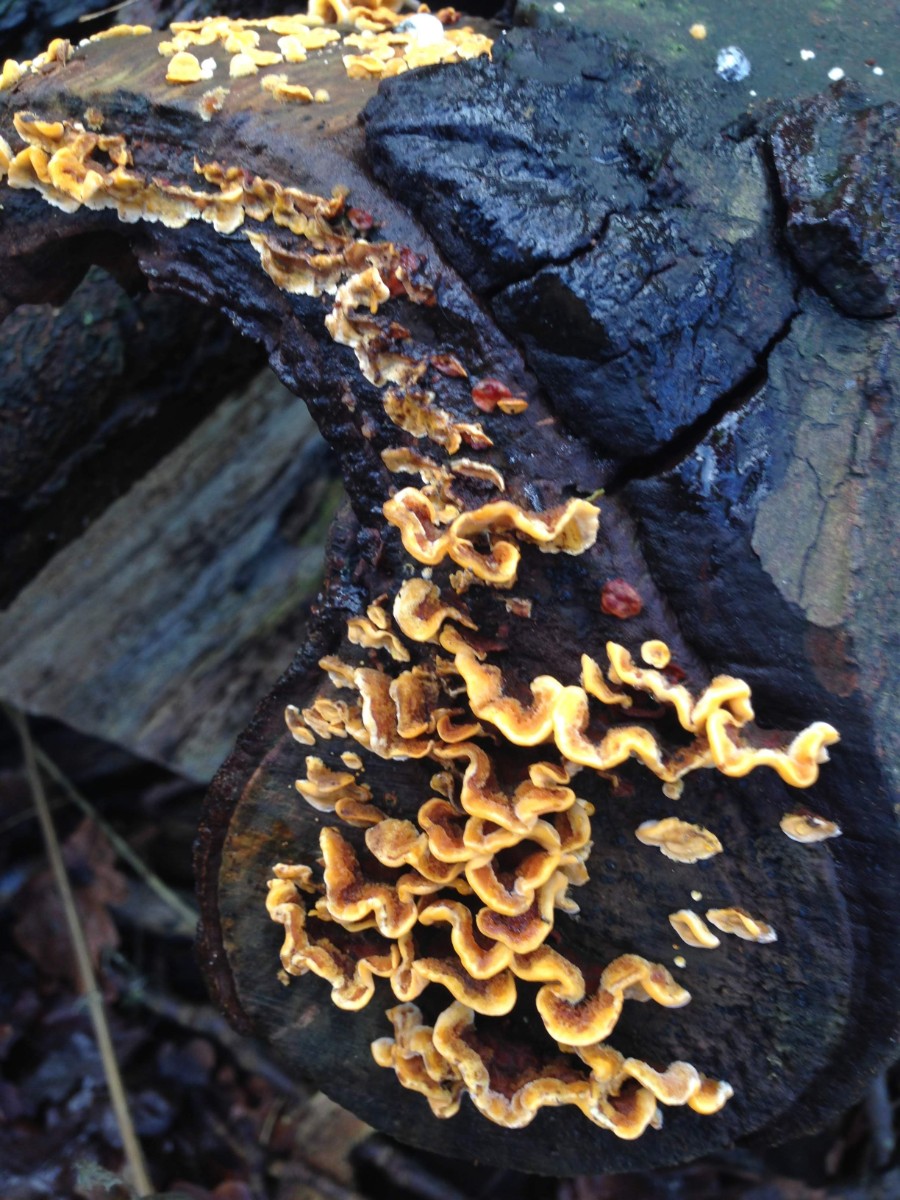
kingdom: Fungi
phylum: Basidiomycota
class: Agaricomycetes
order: Russulales
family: Stereaceae
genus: Stereum
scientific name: Stereum hirsutum
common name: håret lædersvamp
